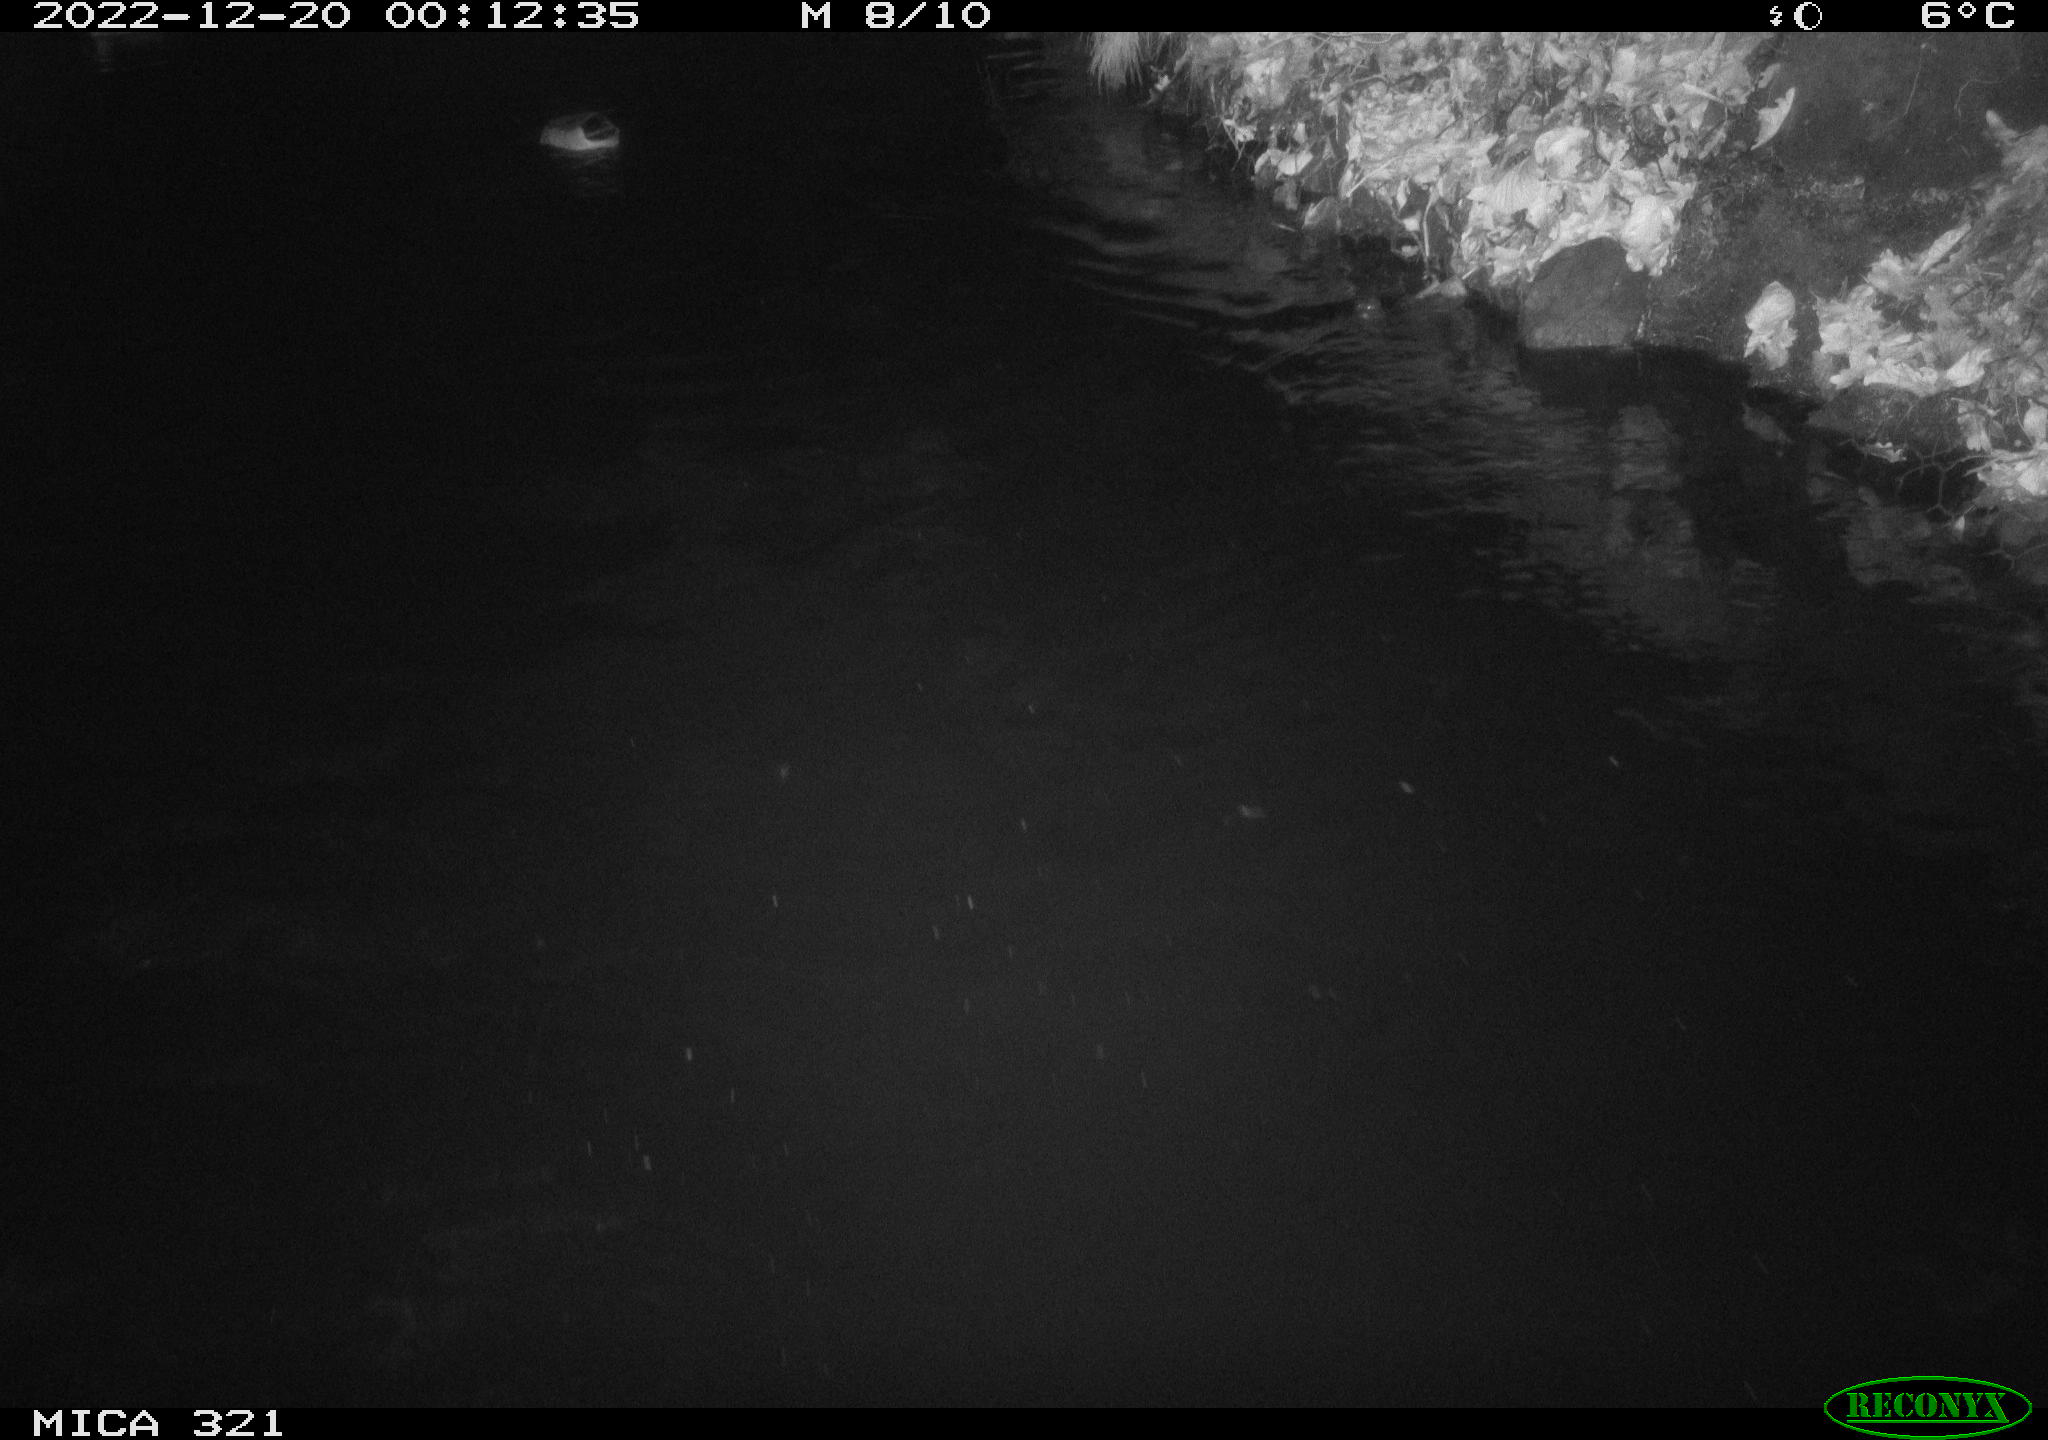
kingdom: Animalia
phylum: Chordata
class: Aves
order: Anseriformes
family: Anatidae
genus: Anas
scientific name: Anas
